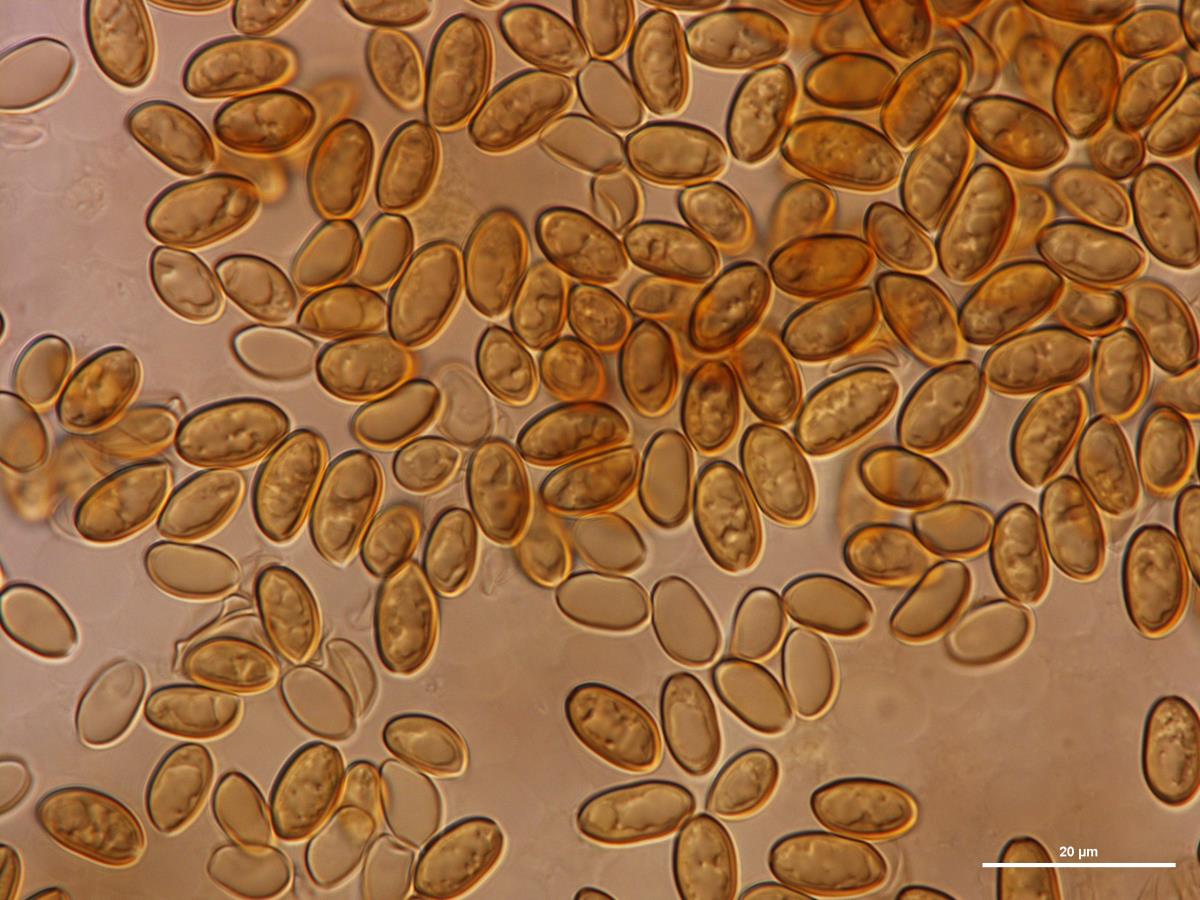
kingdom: Fungi
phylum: Basidiomycota
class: Agaricomycetes
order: Agaricales
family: Strophariaceae
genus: Kuehneromyces
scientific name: Kuehneromyces
